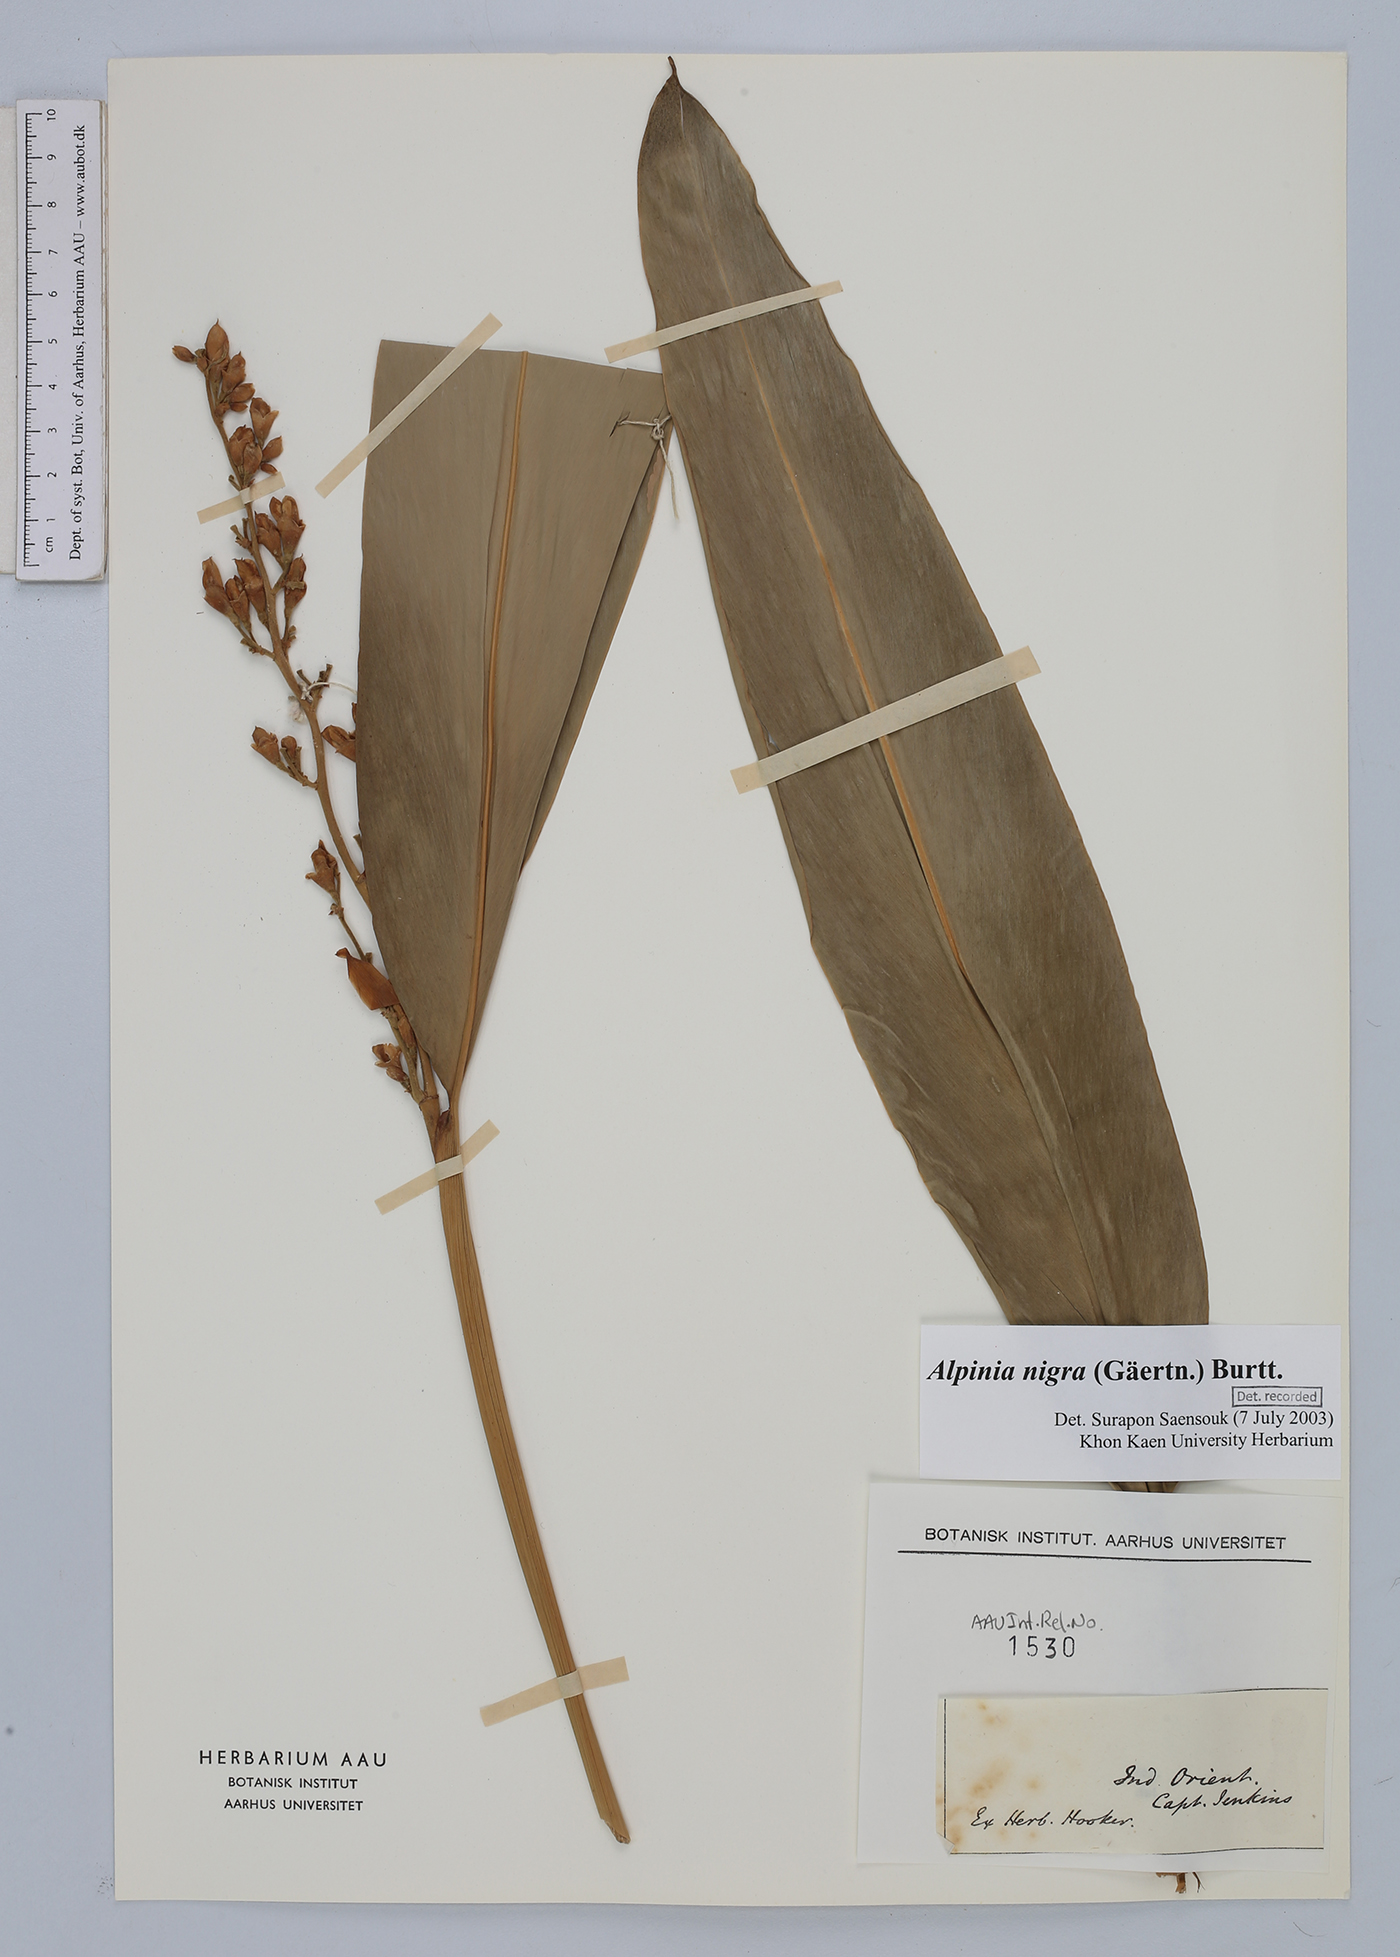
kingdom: Plantae
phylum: Tracheophyta
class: Liliopsida
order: Zingiberales
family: Zingiberaceae
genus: Alpinia
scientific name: Alpinia nigra
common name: Black fruited galanga
